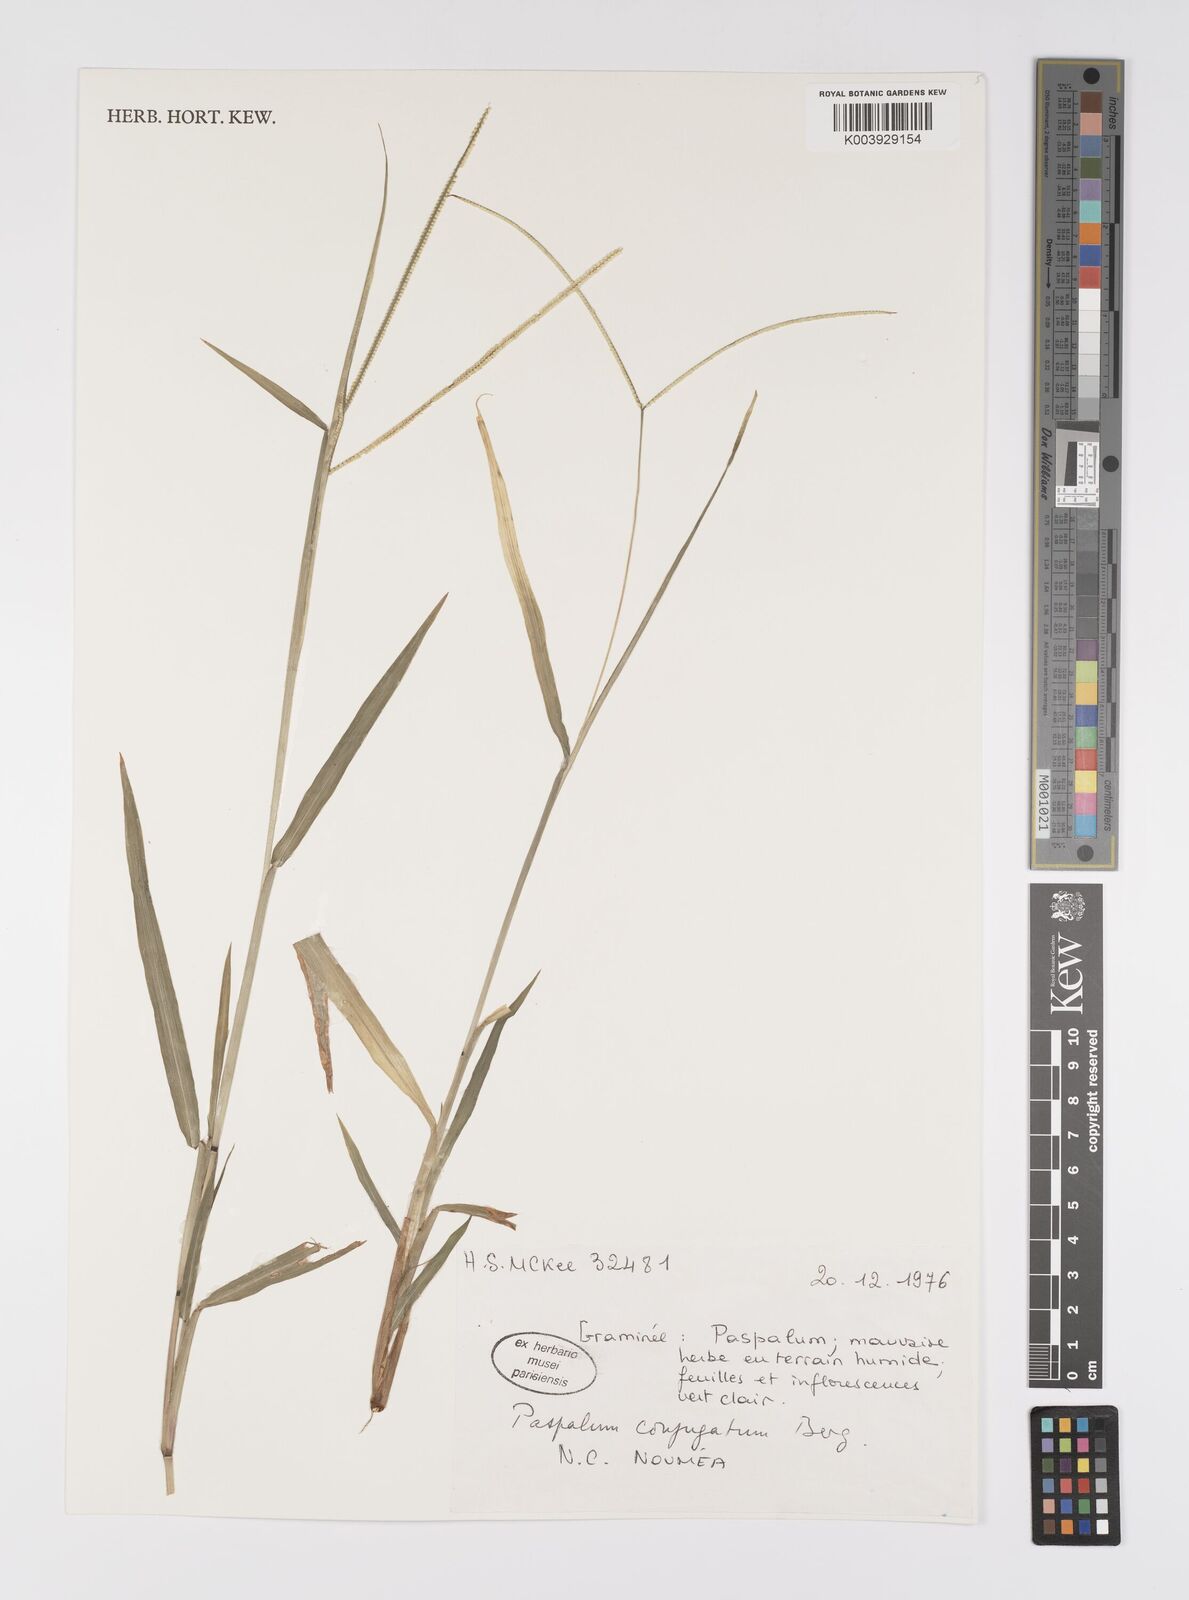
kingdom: Plantae
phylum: Tracheophyta
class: Liliopsida
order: Poales
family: Poaceae
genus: Paspalum
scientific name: Paspalum conjugatum
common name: Hilograss
